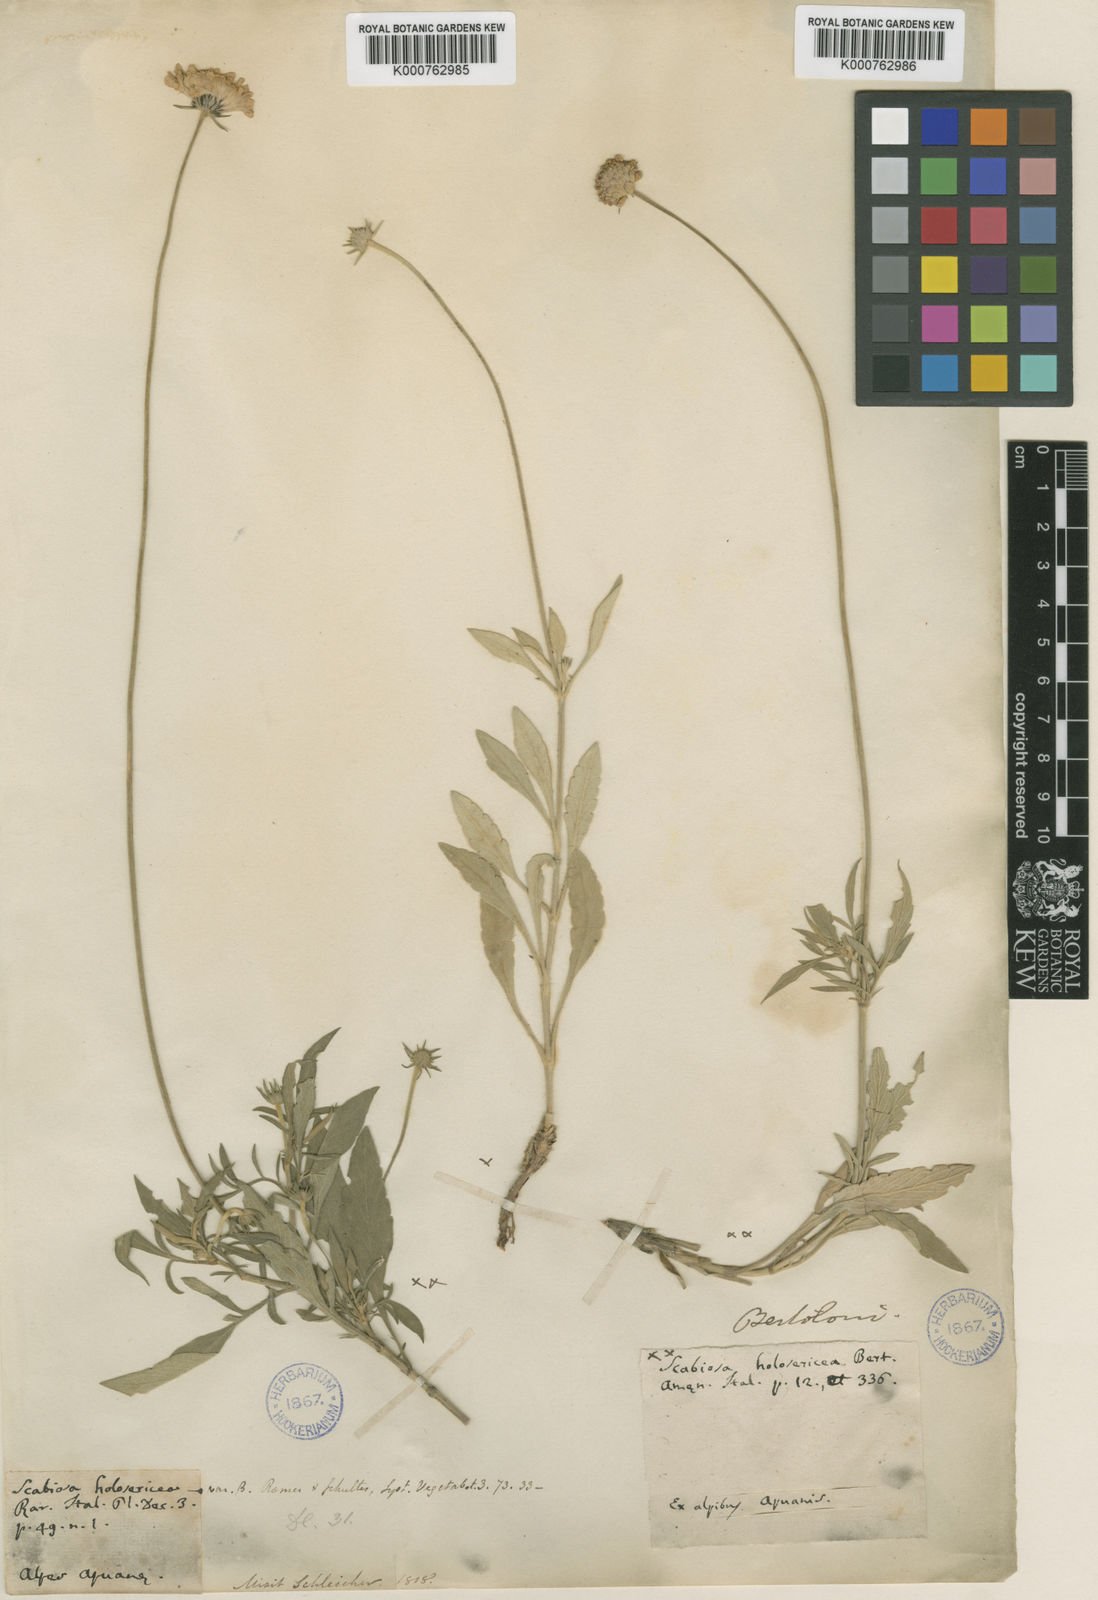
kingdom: Plantae
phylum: Tracheophyta
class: Magnoliopsida
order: Dipsacales
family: Caprifoliaceae
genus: Scabiosa
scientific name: Scabiosa holosericea
